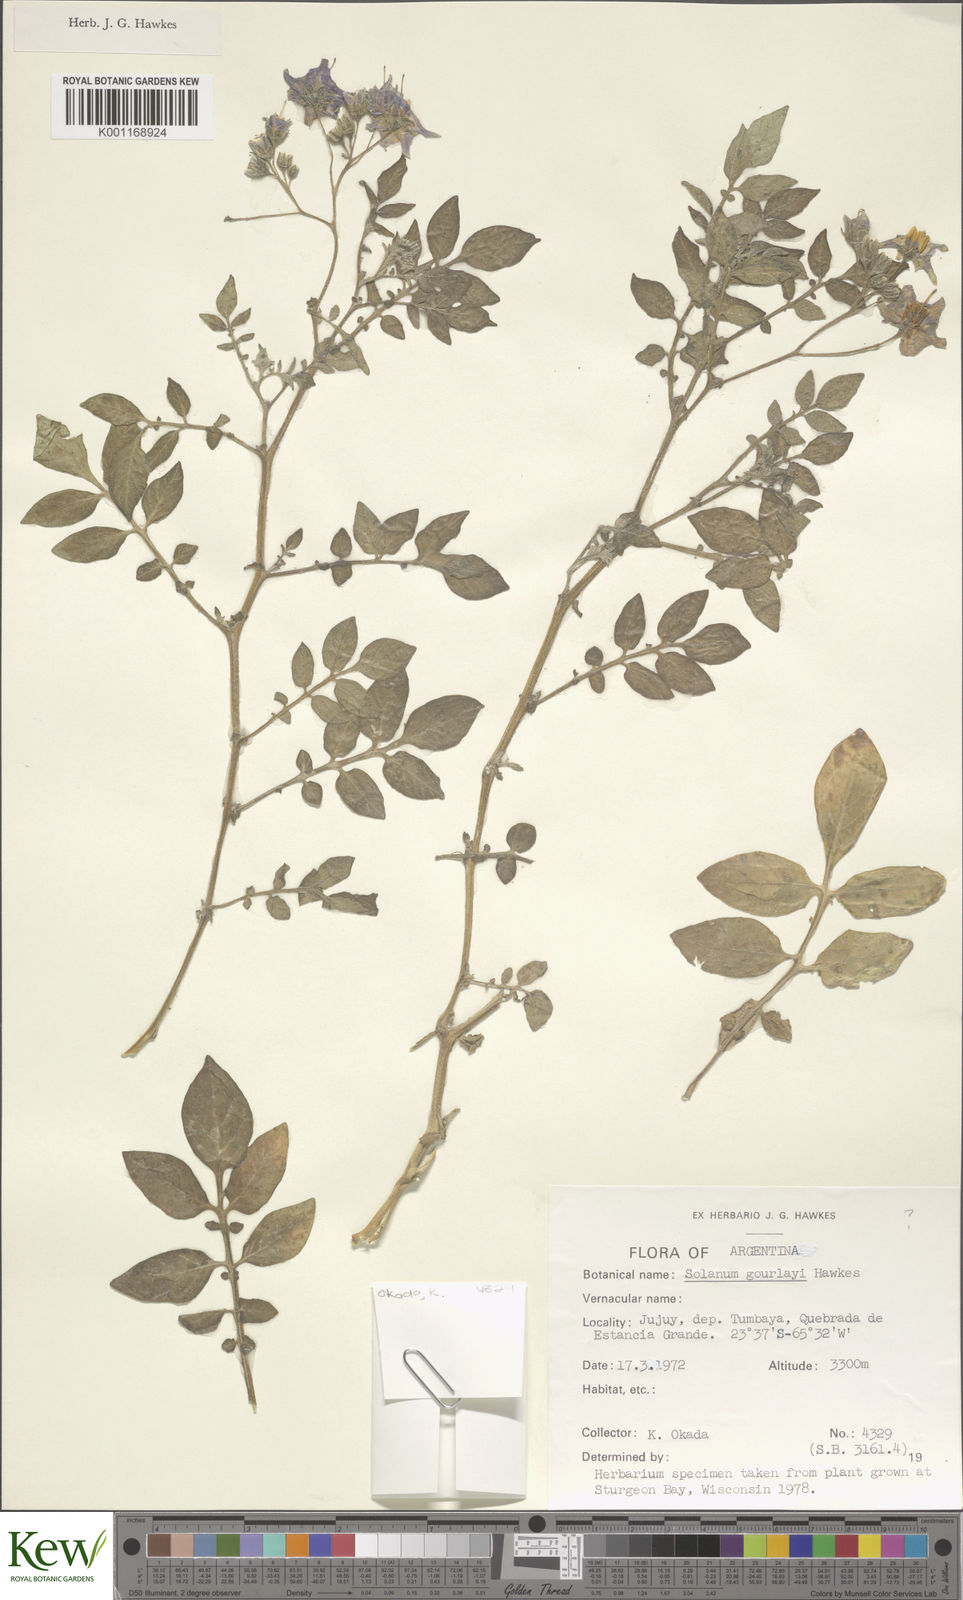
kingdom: Plantae
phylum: Tracheophyta
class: Magnoliopsida
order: Solanales
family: Solanaceae
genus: Solanum
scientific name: Solanum brevicaule
